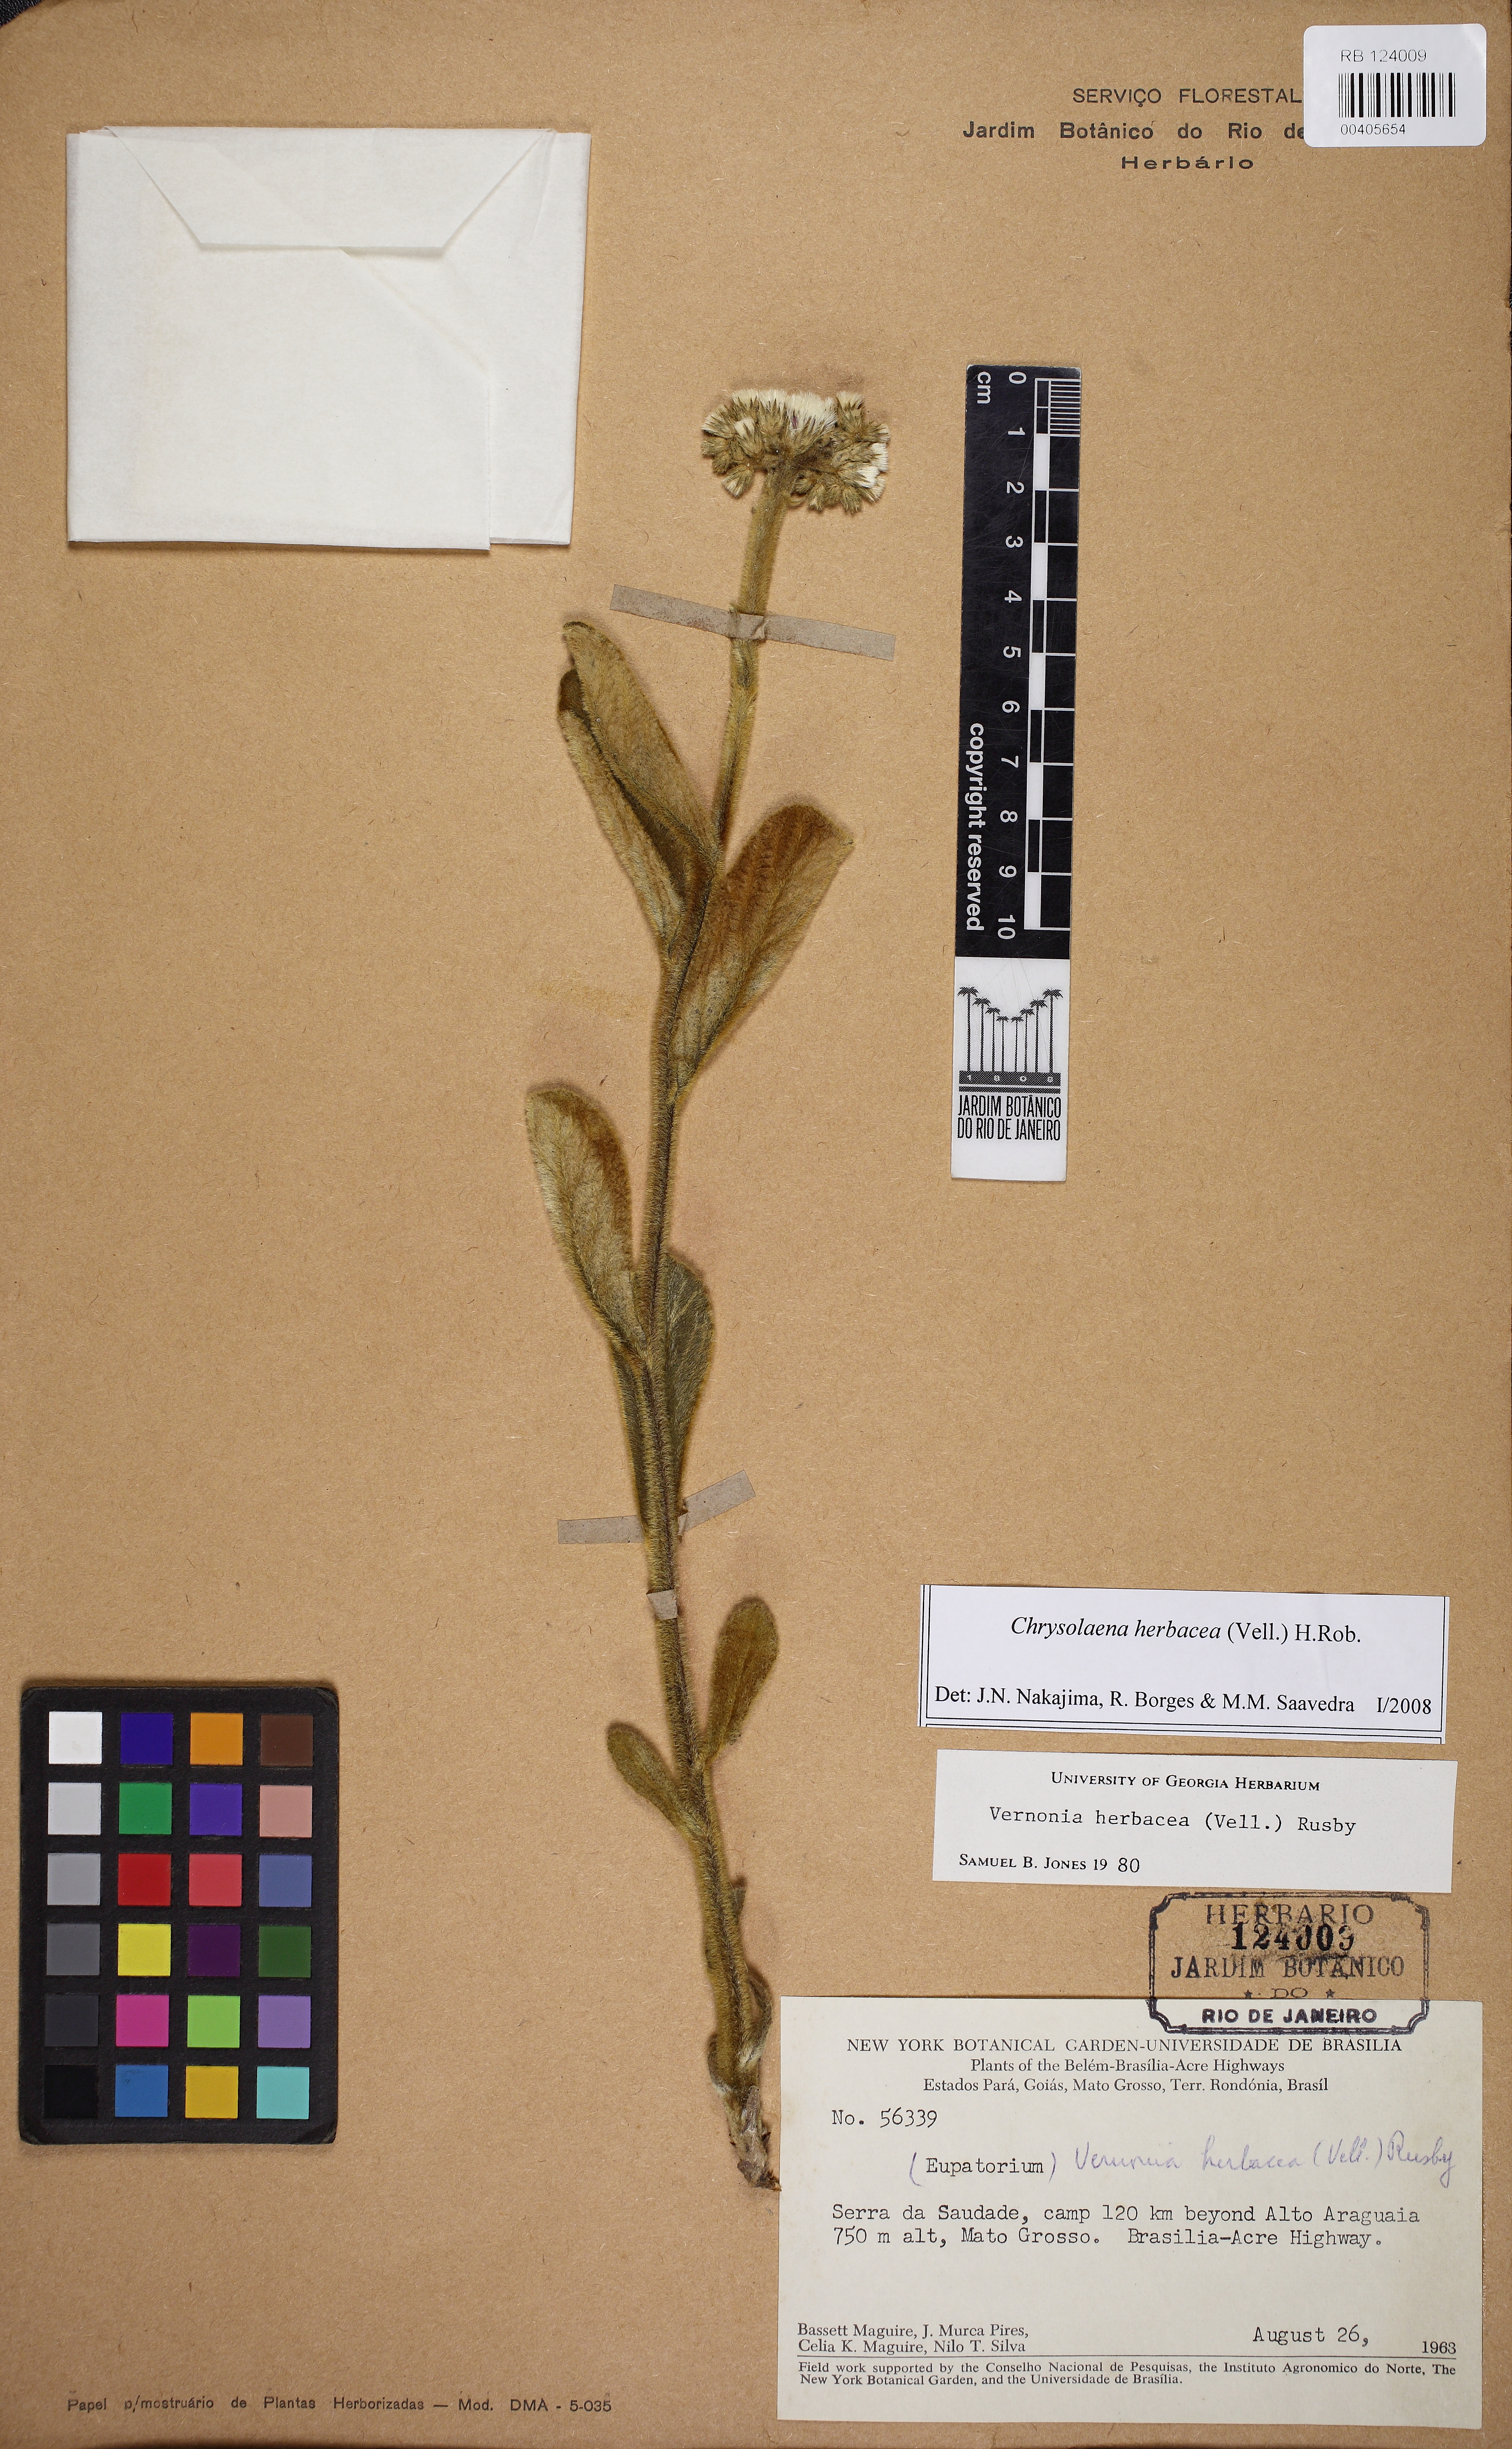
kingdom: Plantae
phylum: Tracheophyta
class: Magnoliopsida
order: Asterales
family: Asteraceae
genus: Chrysolaena
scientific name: Chrysolaena obovata
